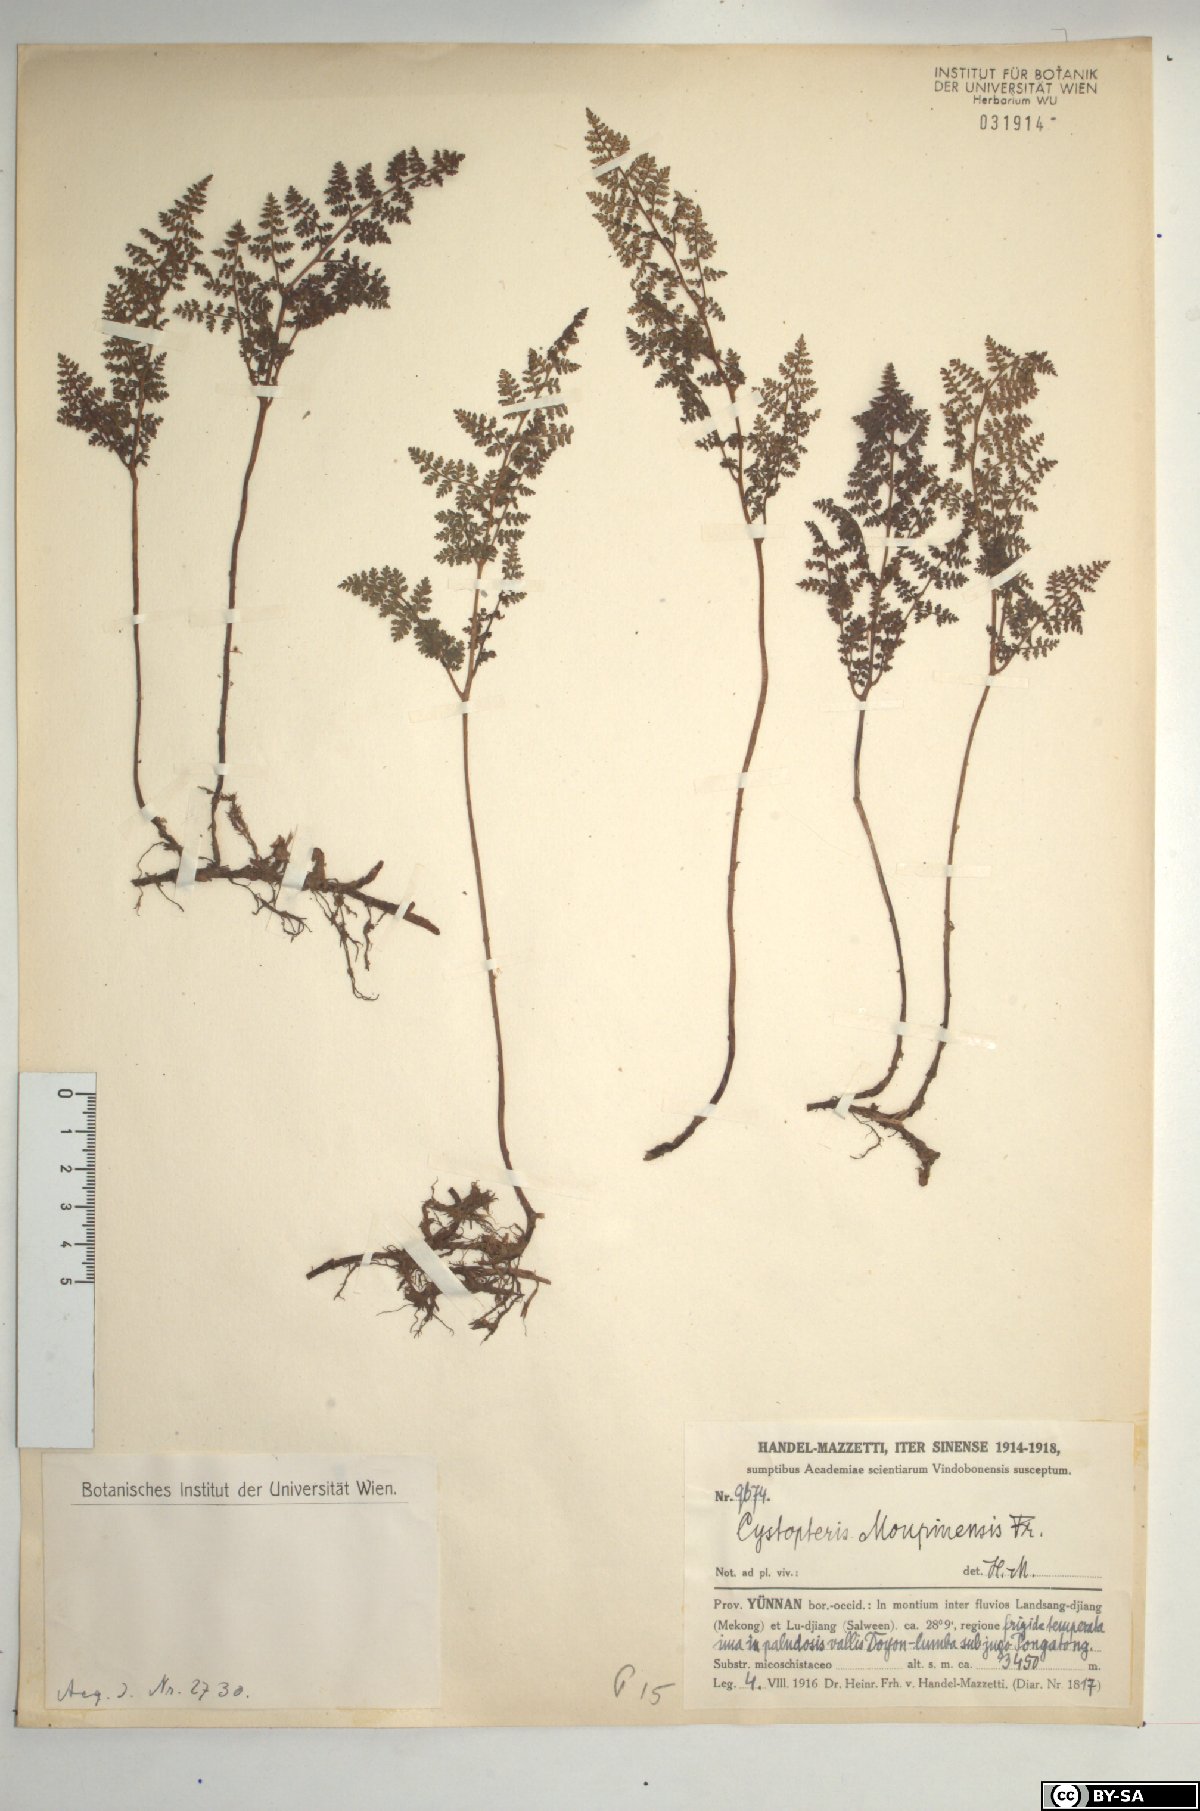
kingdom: Plantae
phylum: Tracheophyta
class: Polypodiopsida
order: Polypodiales
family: Cystopteridaceae
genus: Cystopteris
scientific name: Cystopteris moupinensis
